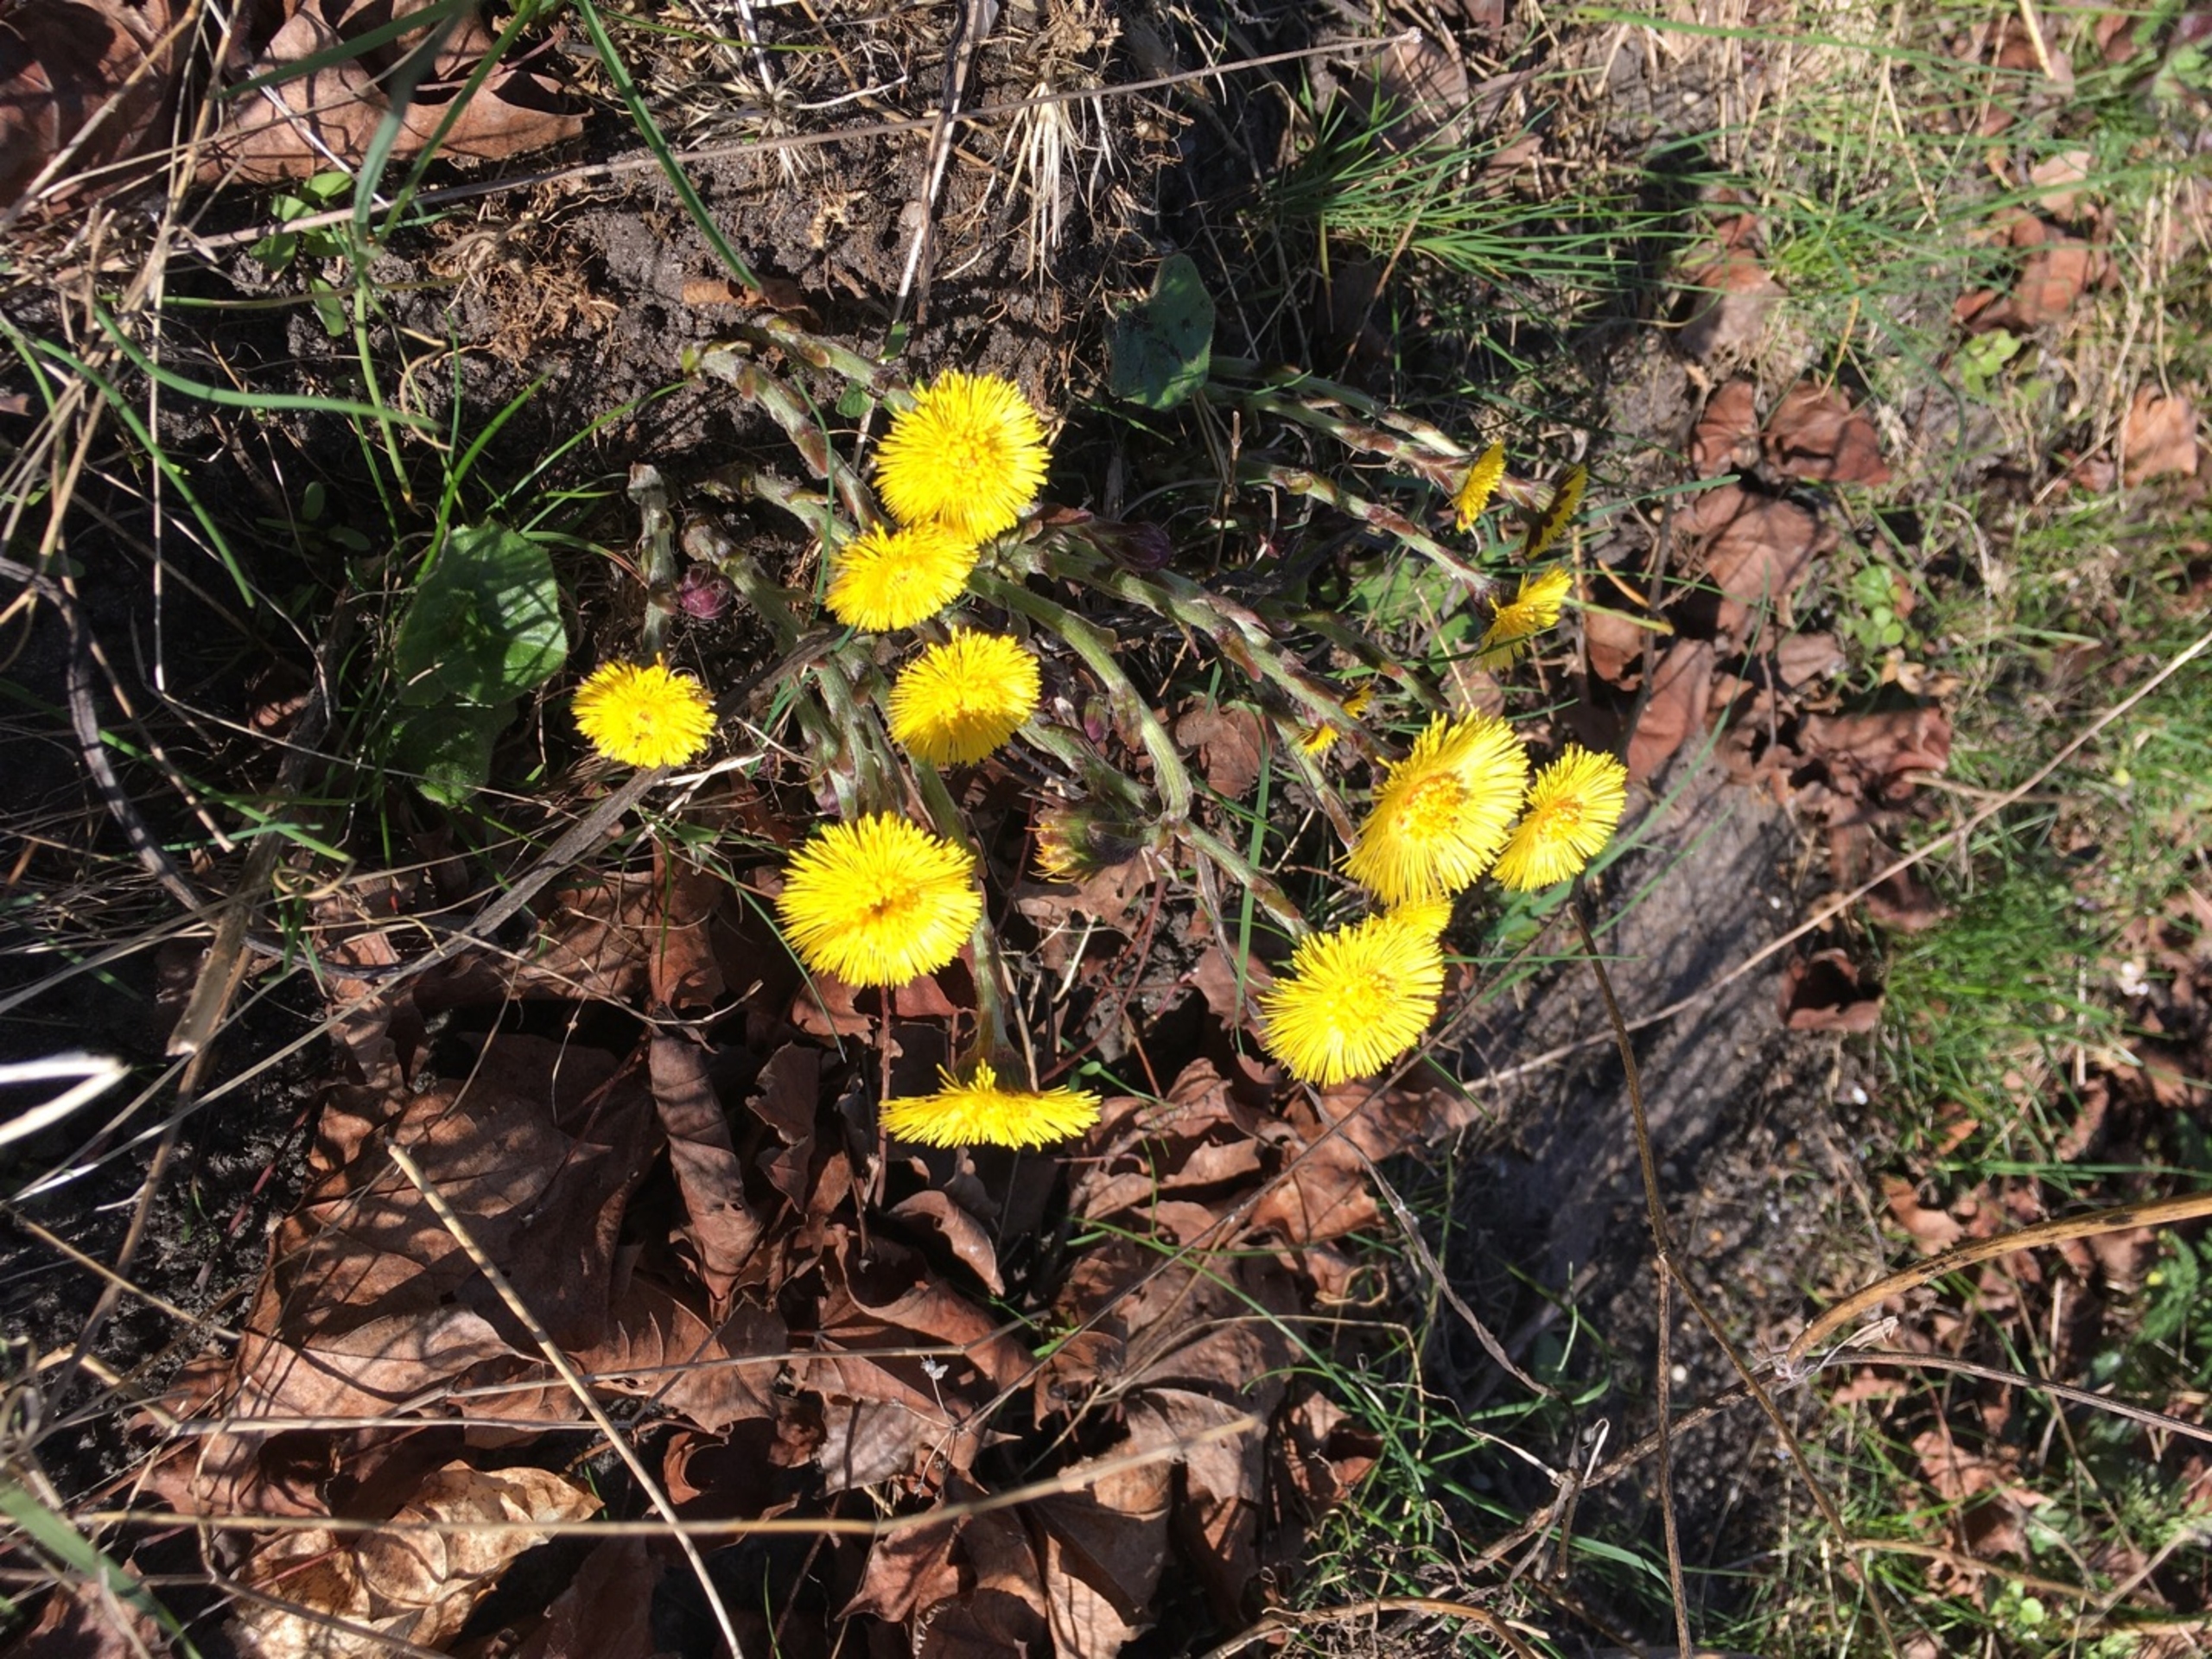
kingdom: Plantae
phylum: Tracheophyta
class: Magnoliopsida
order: Asterales
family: Asteraceae
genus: Tussilago
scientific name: Tussilago farfara
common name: Følfod
